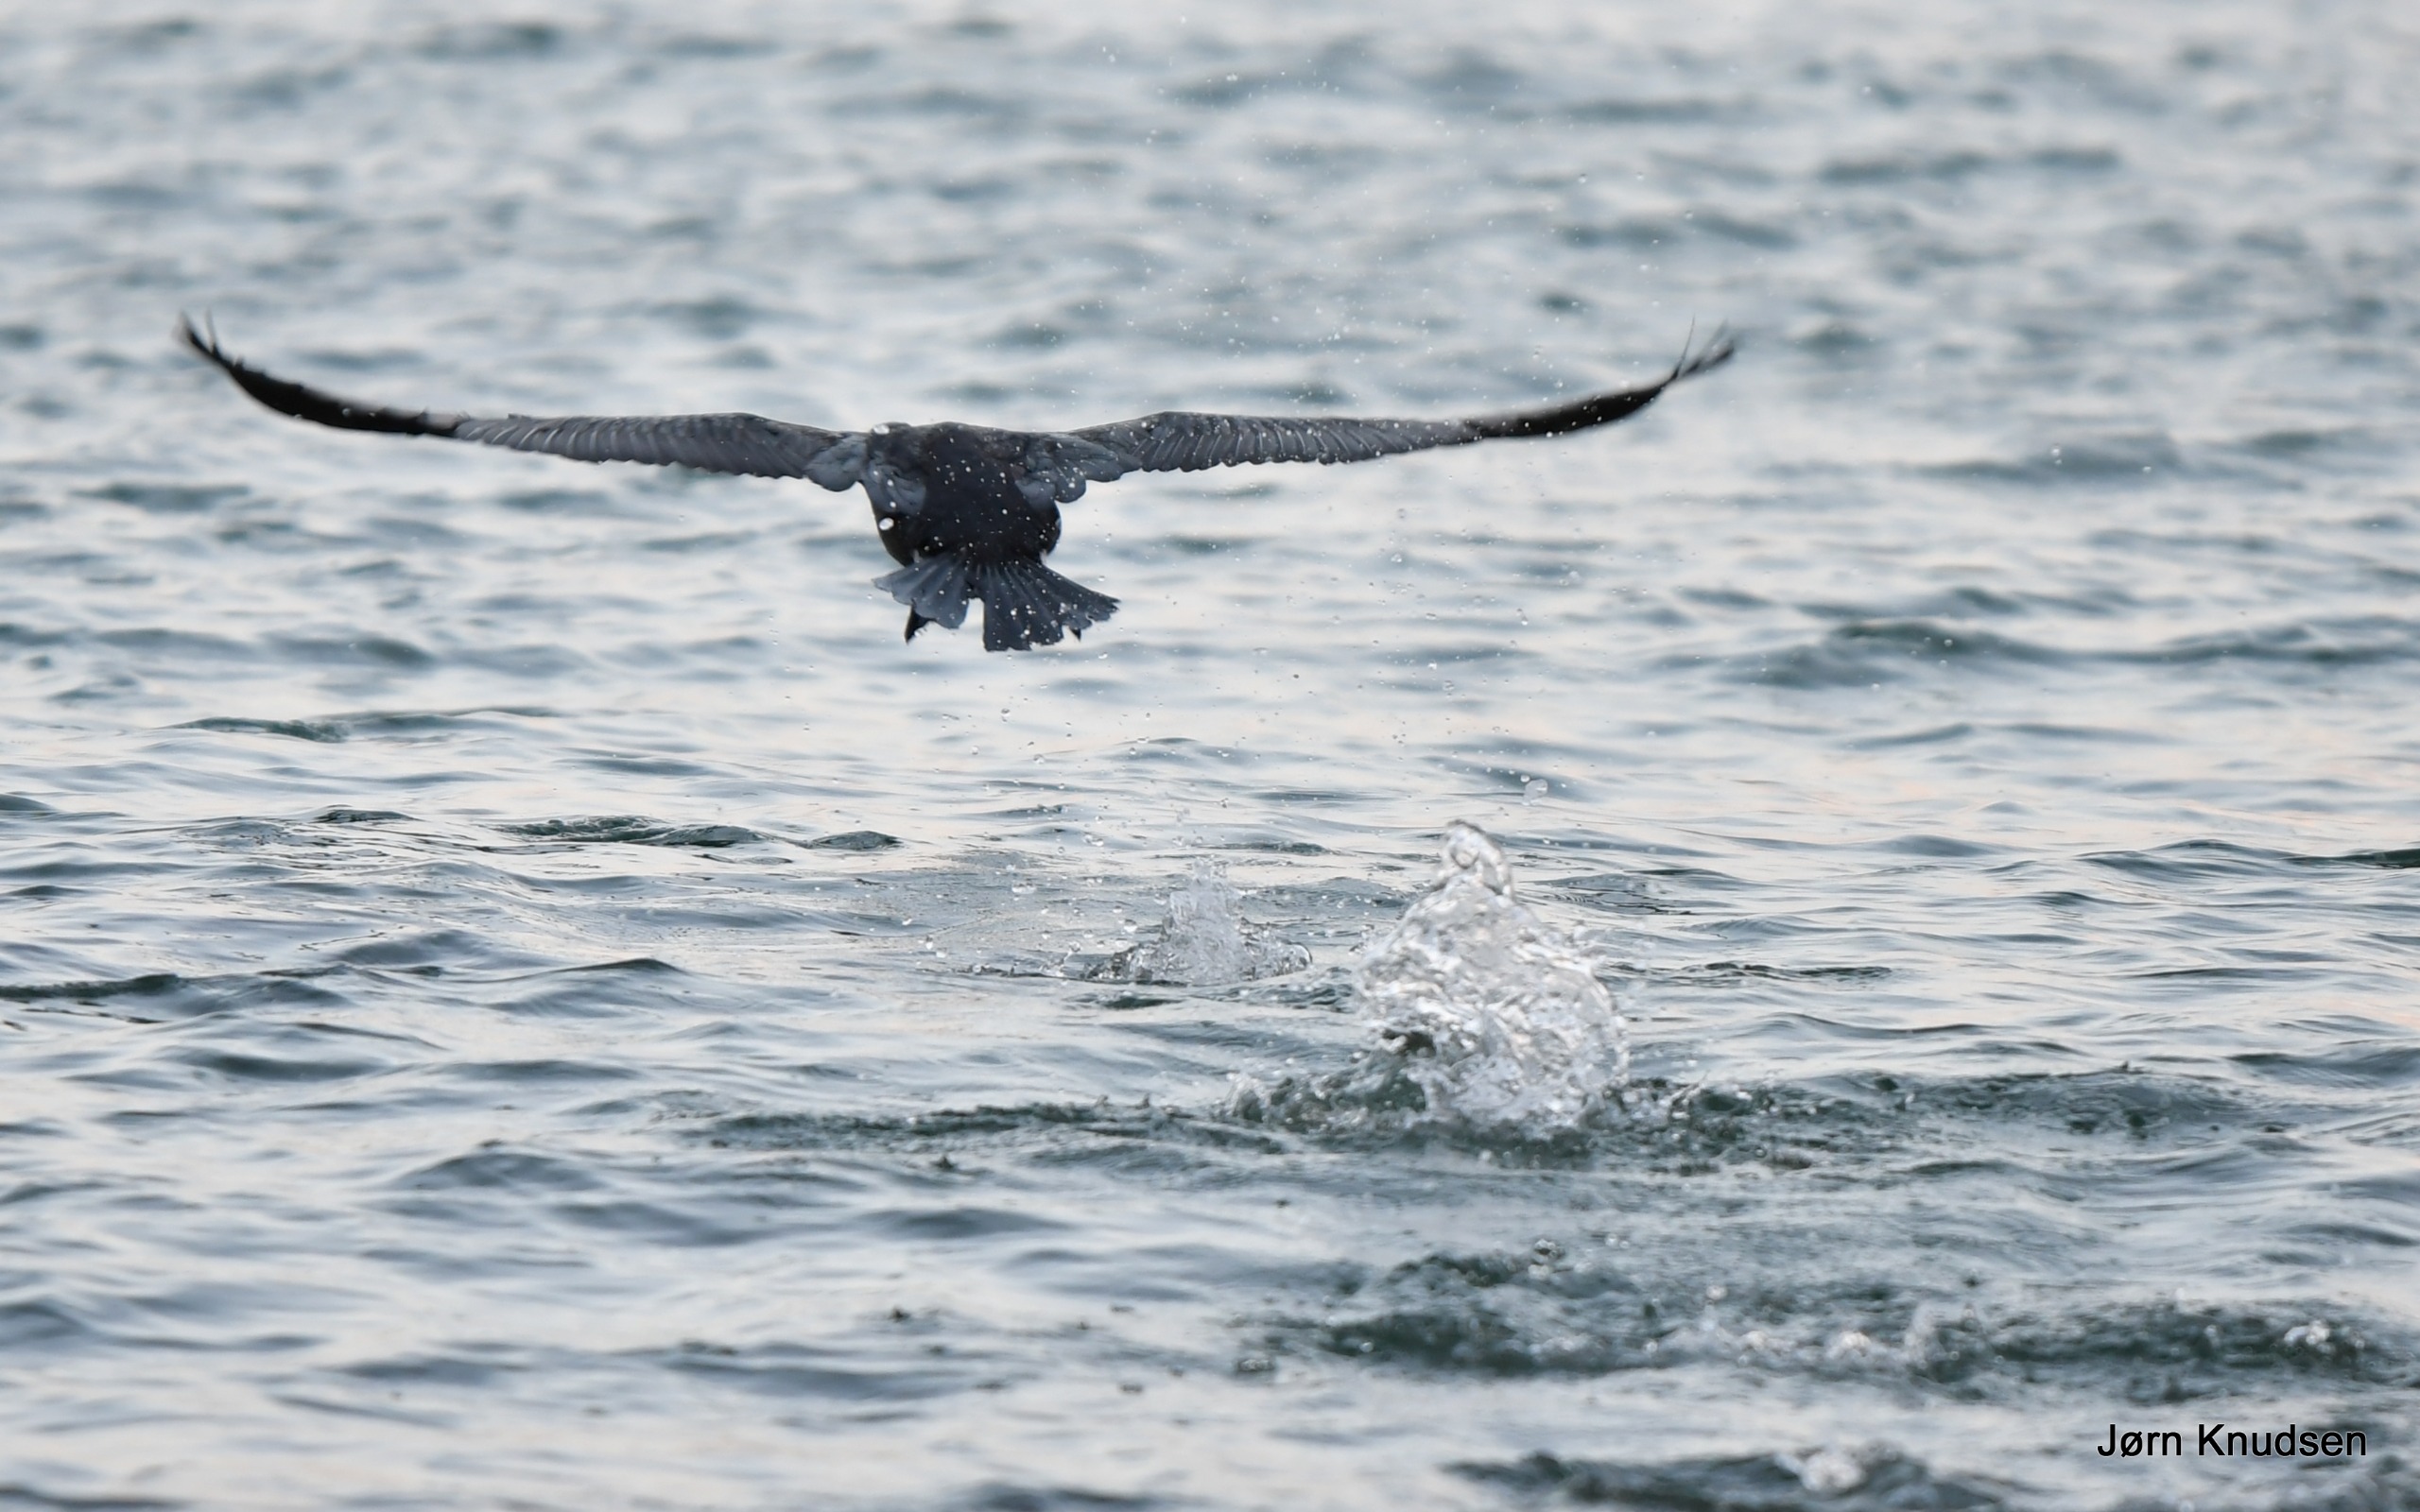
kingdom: Animalia
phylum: Chordata
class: Aves
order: Suliformes
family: Phalacrocoracidae
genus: Phalacrocorax
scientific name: Phalacrocorax carbo
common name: Skarv
